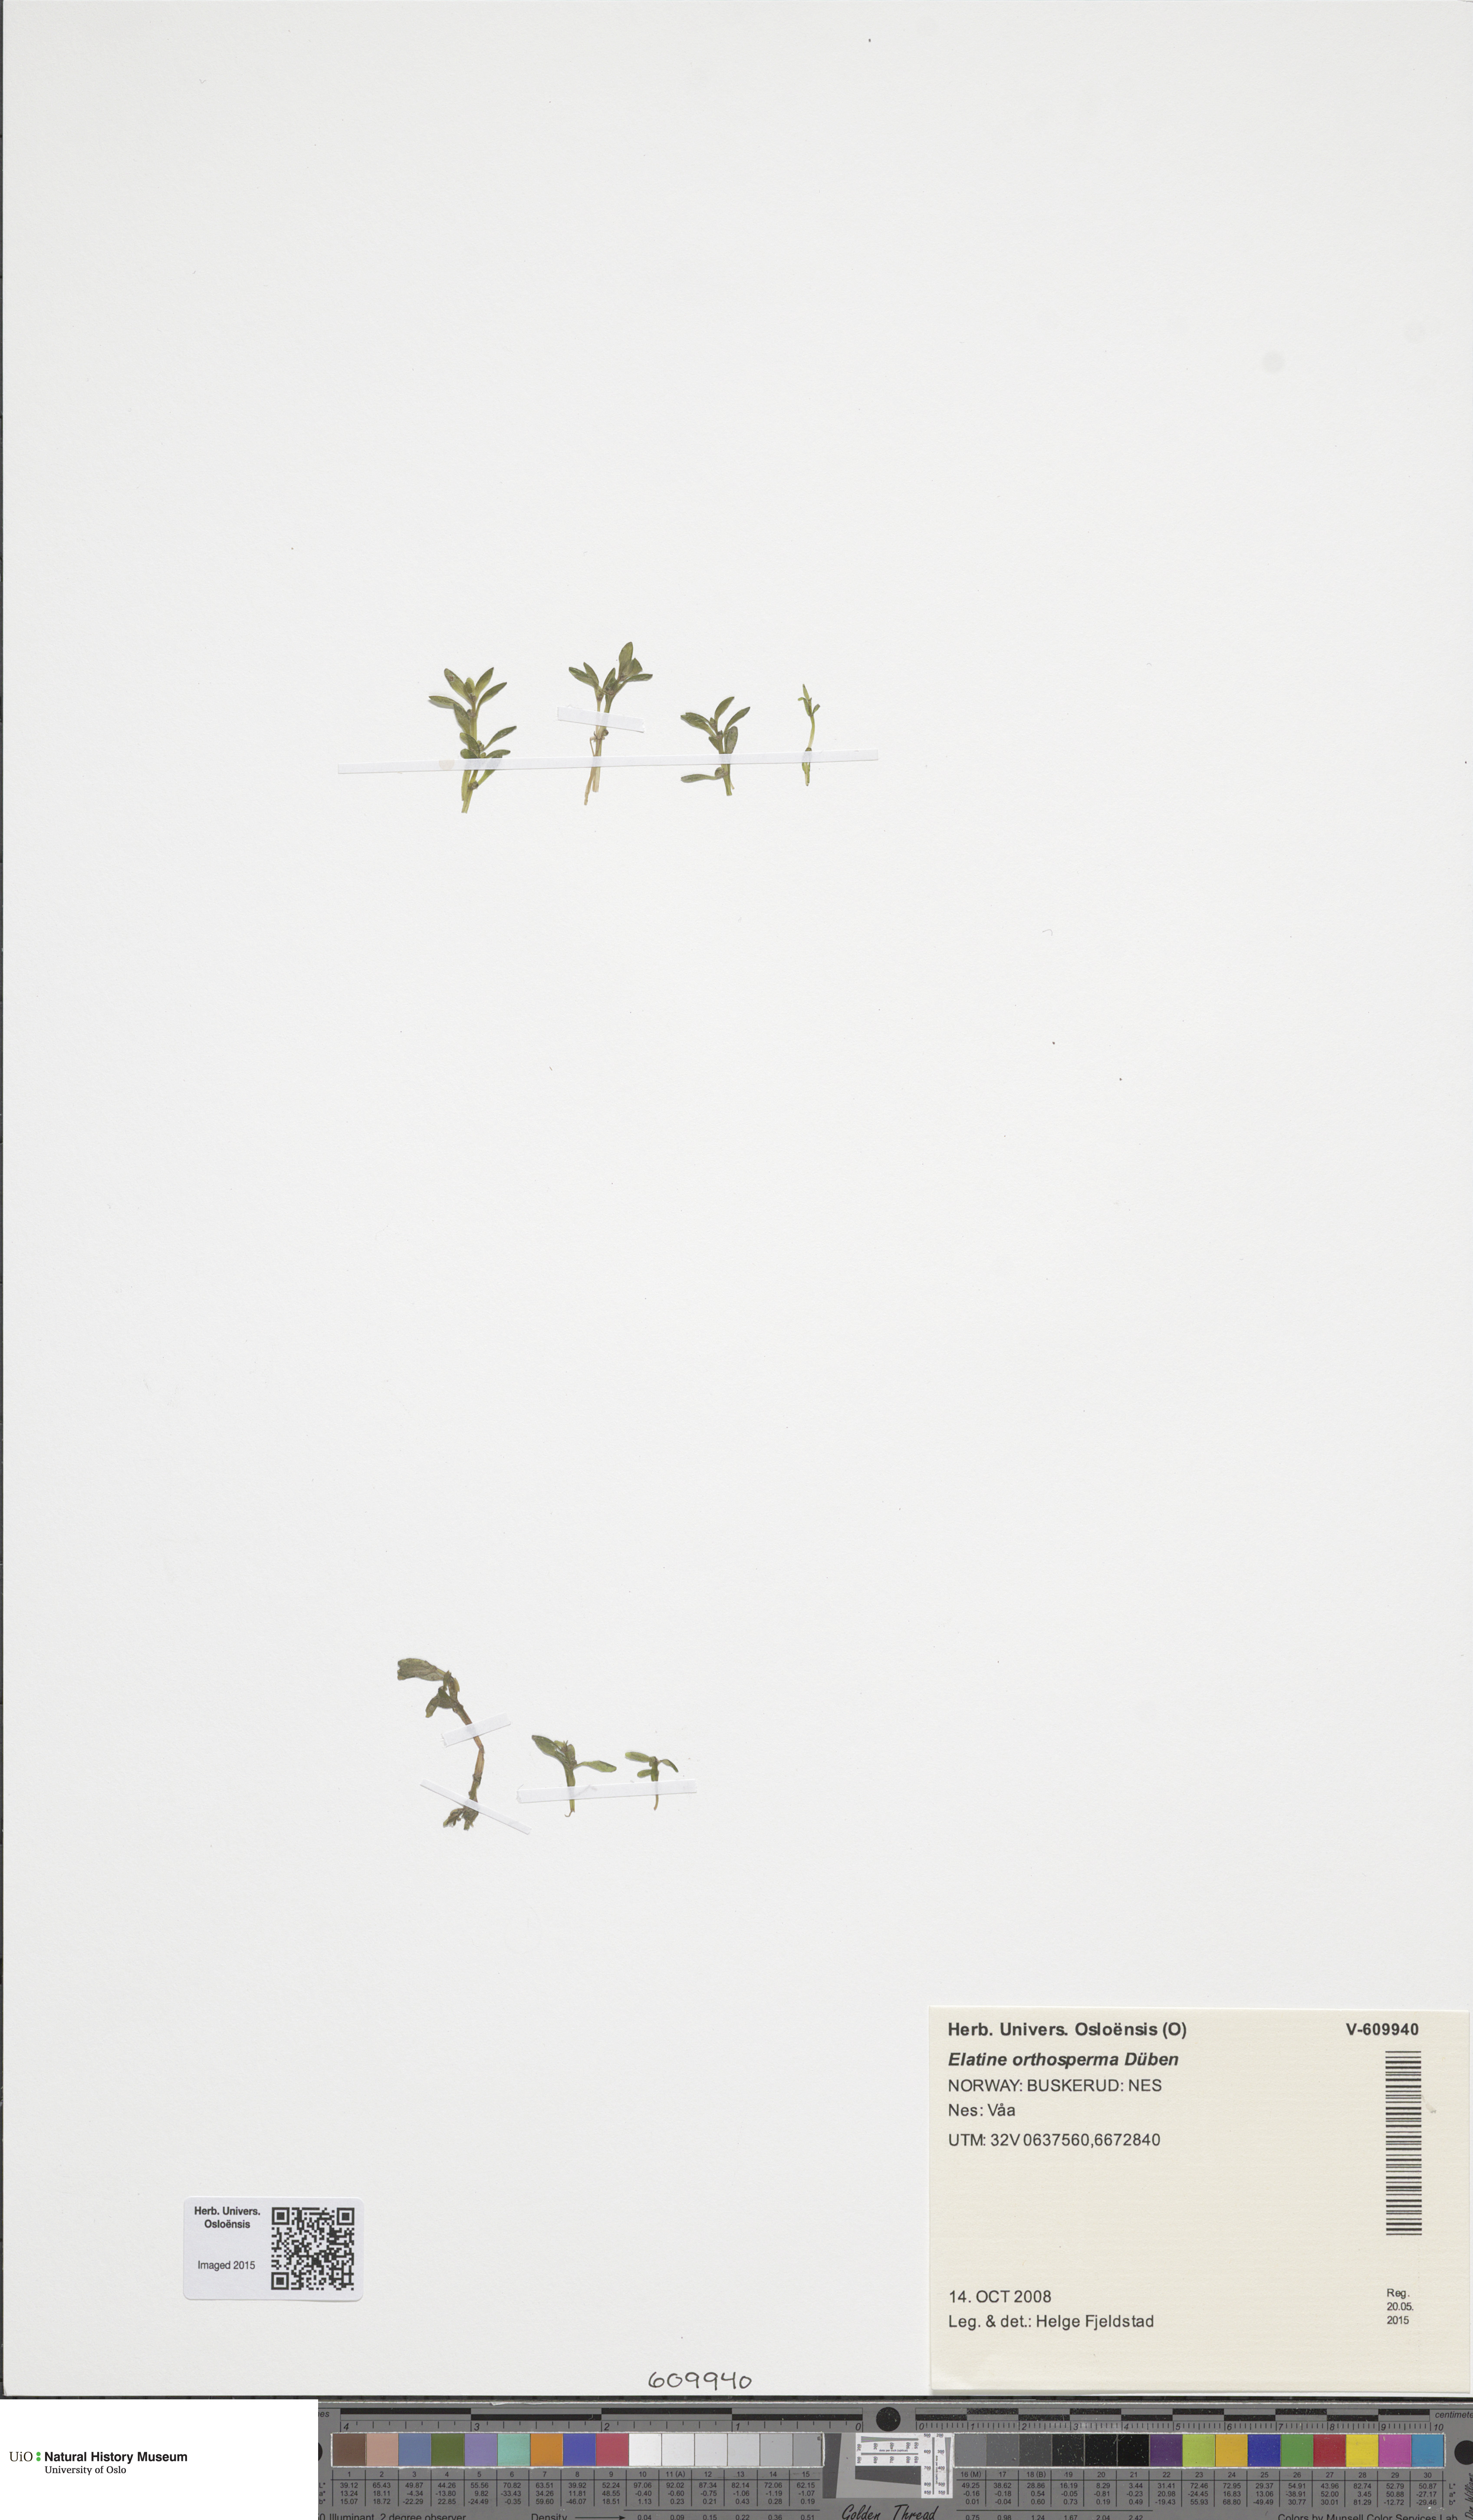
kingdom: Plantae
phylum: Tracheophyta
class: Magnoliopsida
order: Malpighiales
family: Elatinaceae
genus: Elatine
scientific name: Elatine triandra
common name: Three-stamened waterwort
